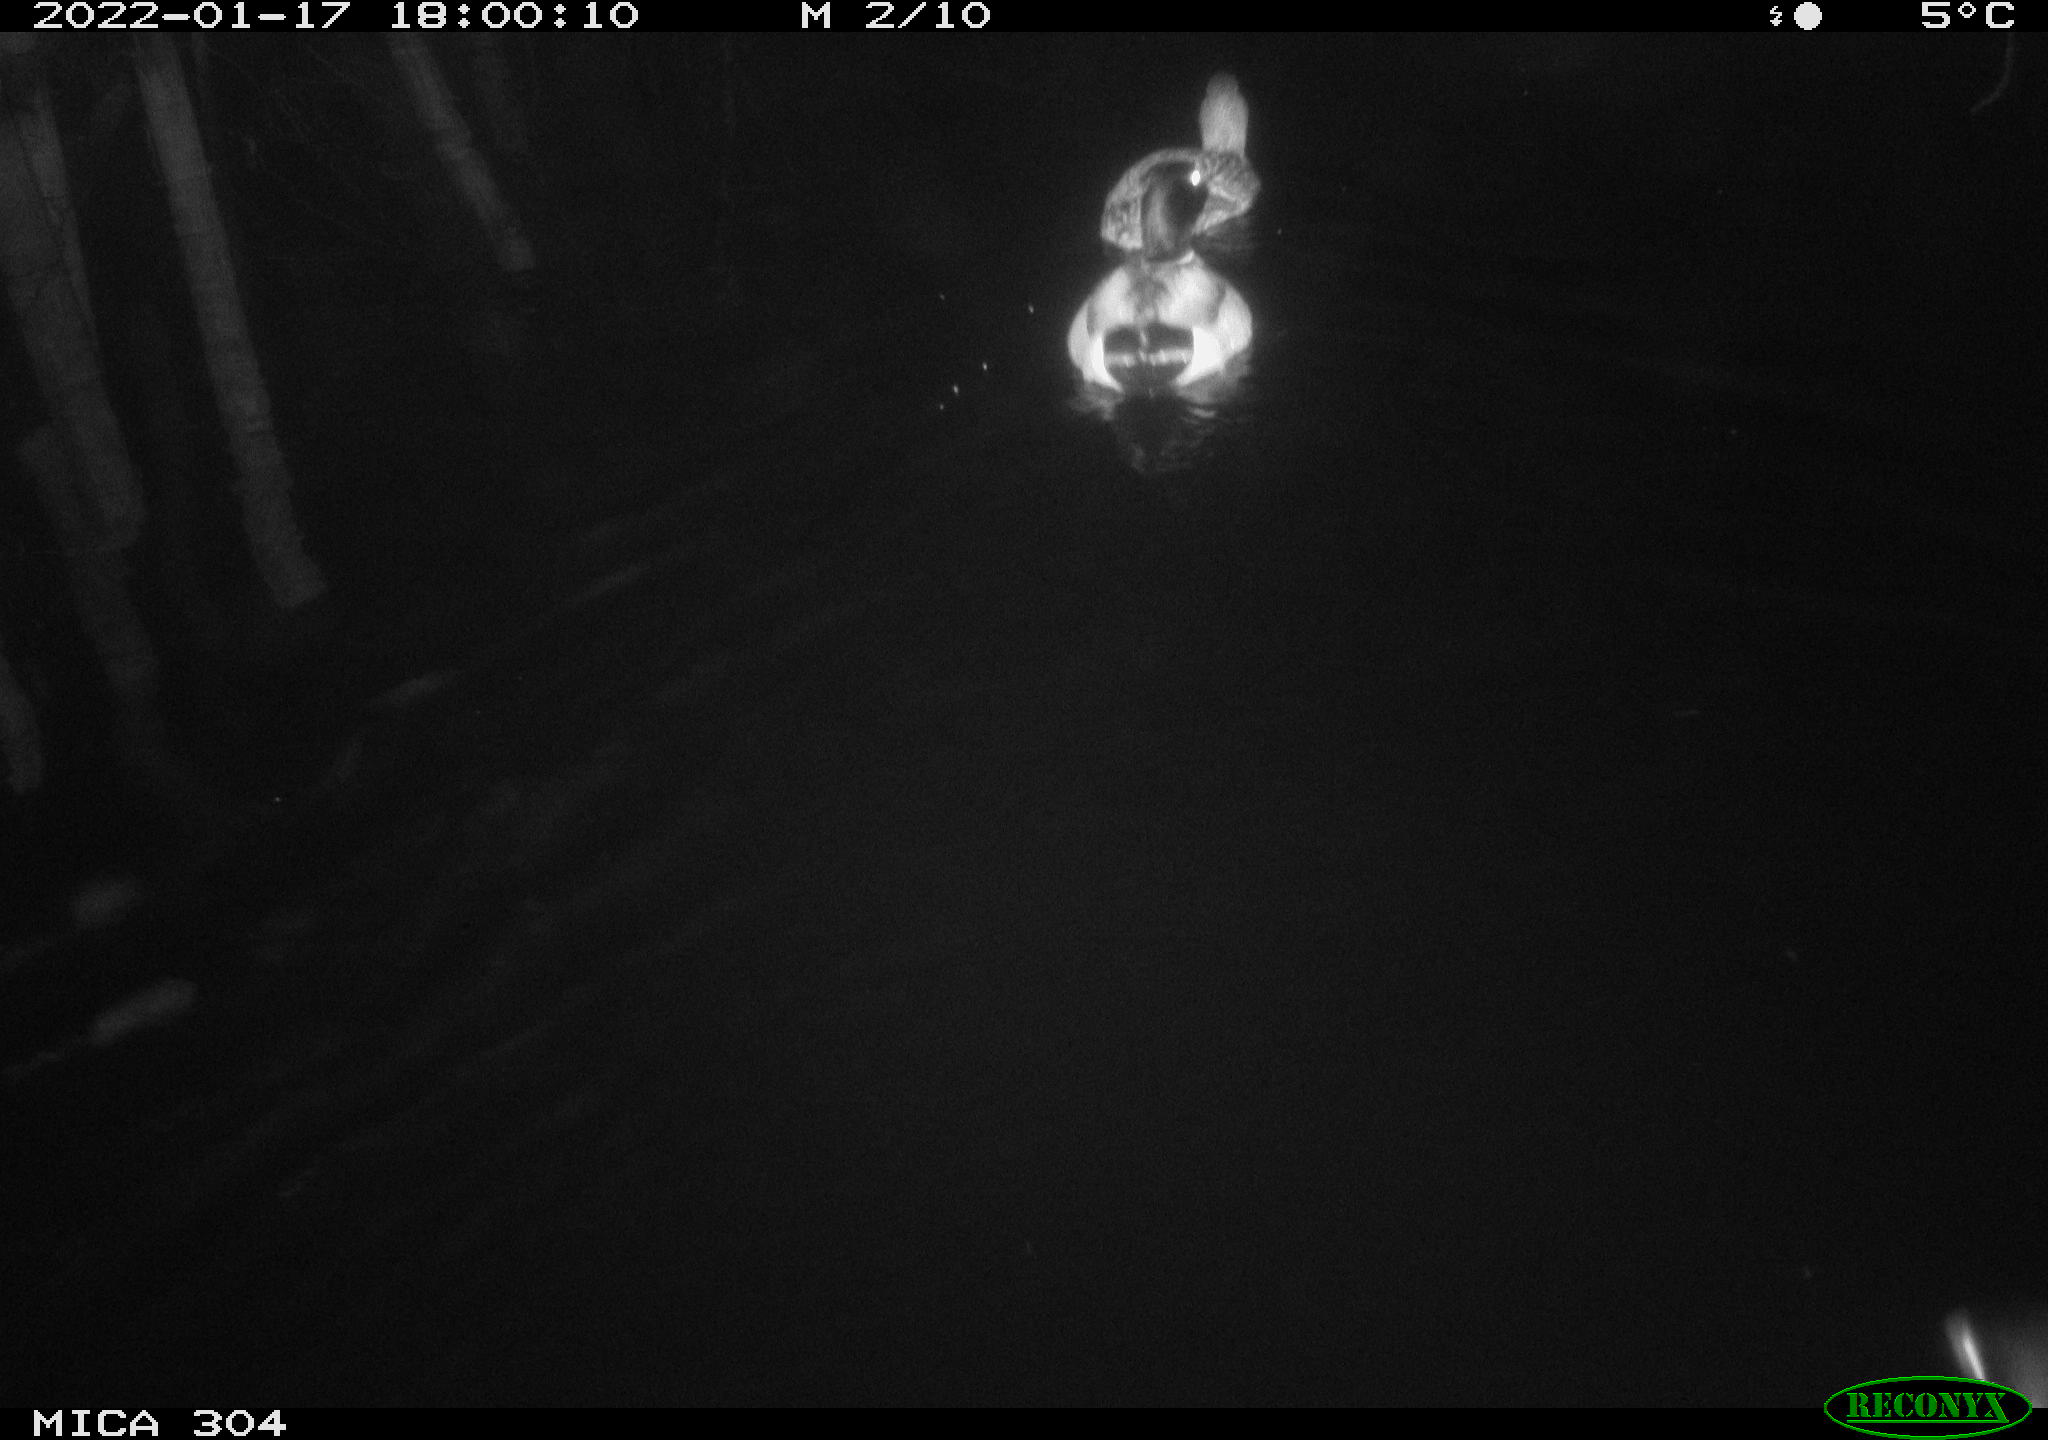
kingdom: Animalia
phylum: Chordata
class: Aves
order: Anseriformes
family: Anatidae
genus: Anas
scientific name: Anas
